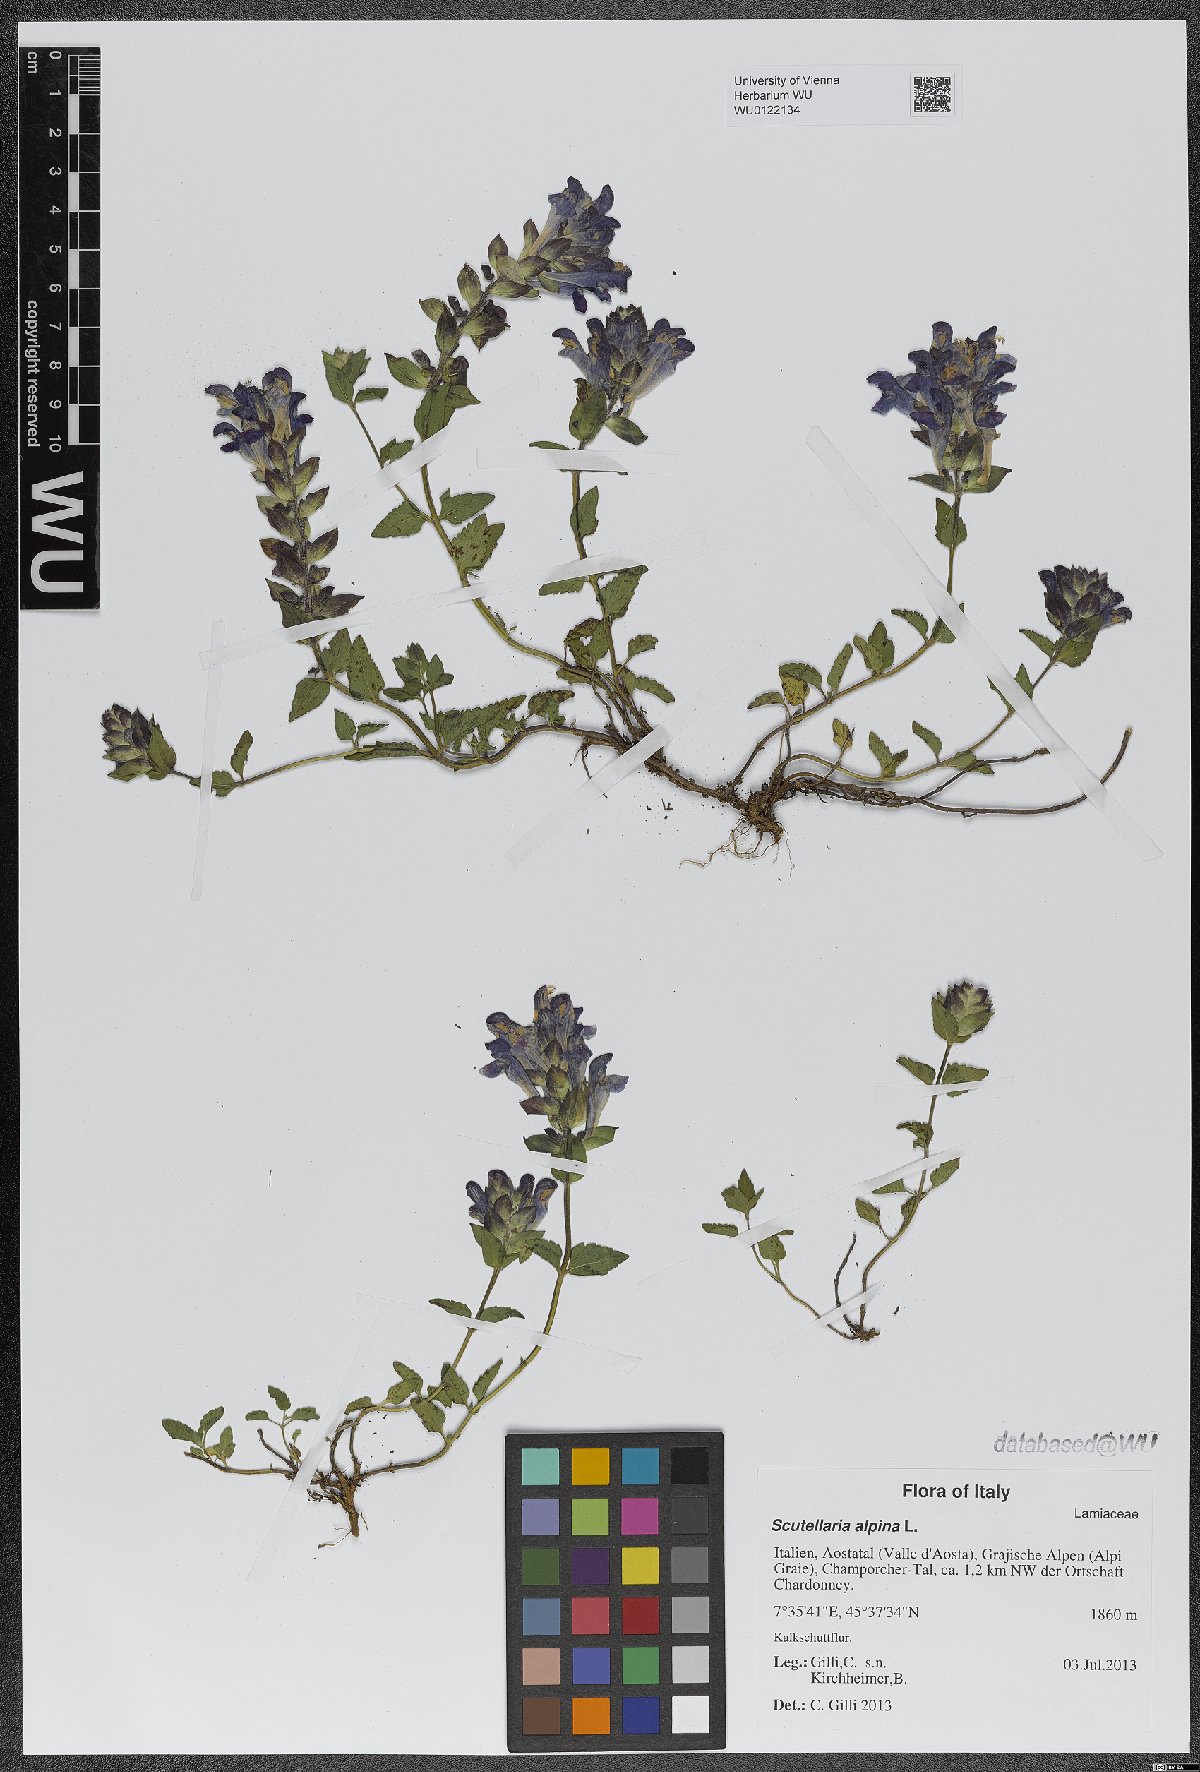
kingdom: Plantae
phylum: Tracheophyta
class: Magnoliopsida
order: Lamiales
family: Lamiaceae
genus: Scutellaria
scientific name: Scutellaria alpina
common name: Alpine scullcap
